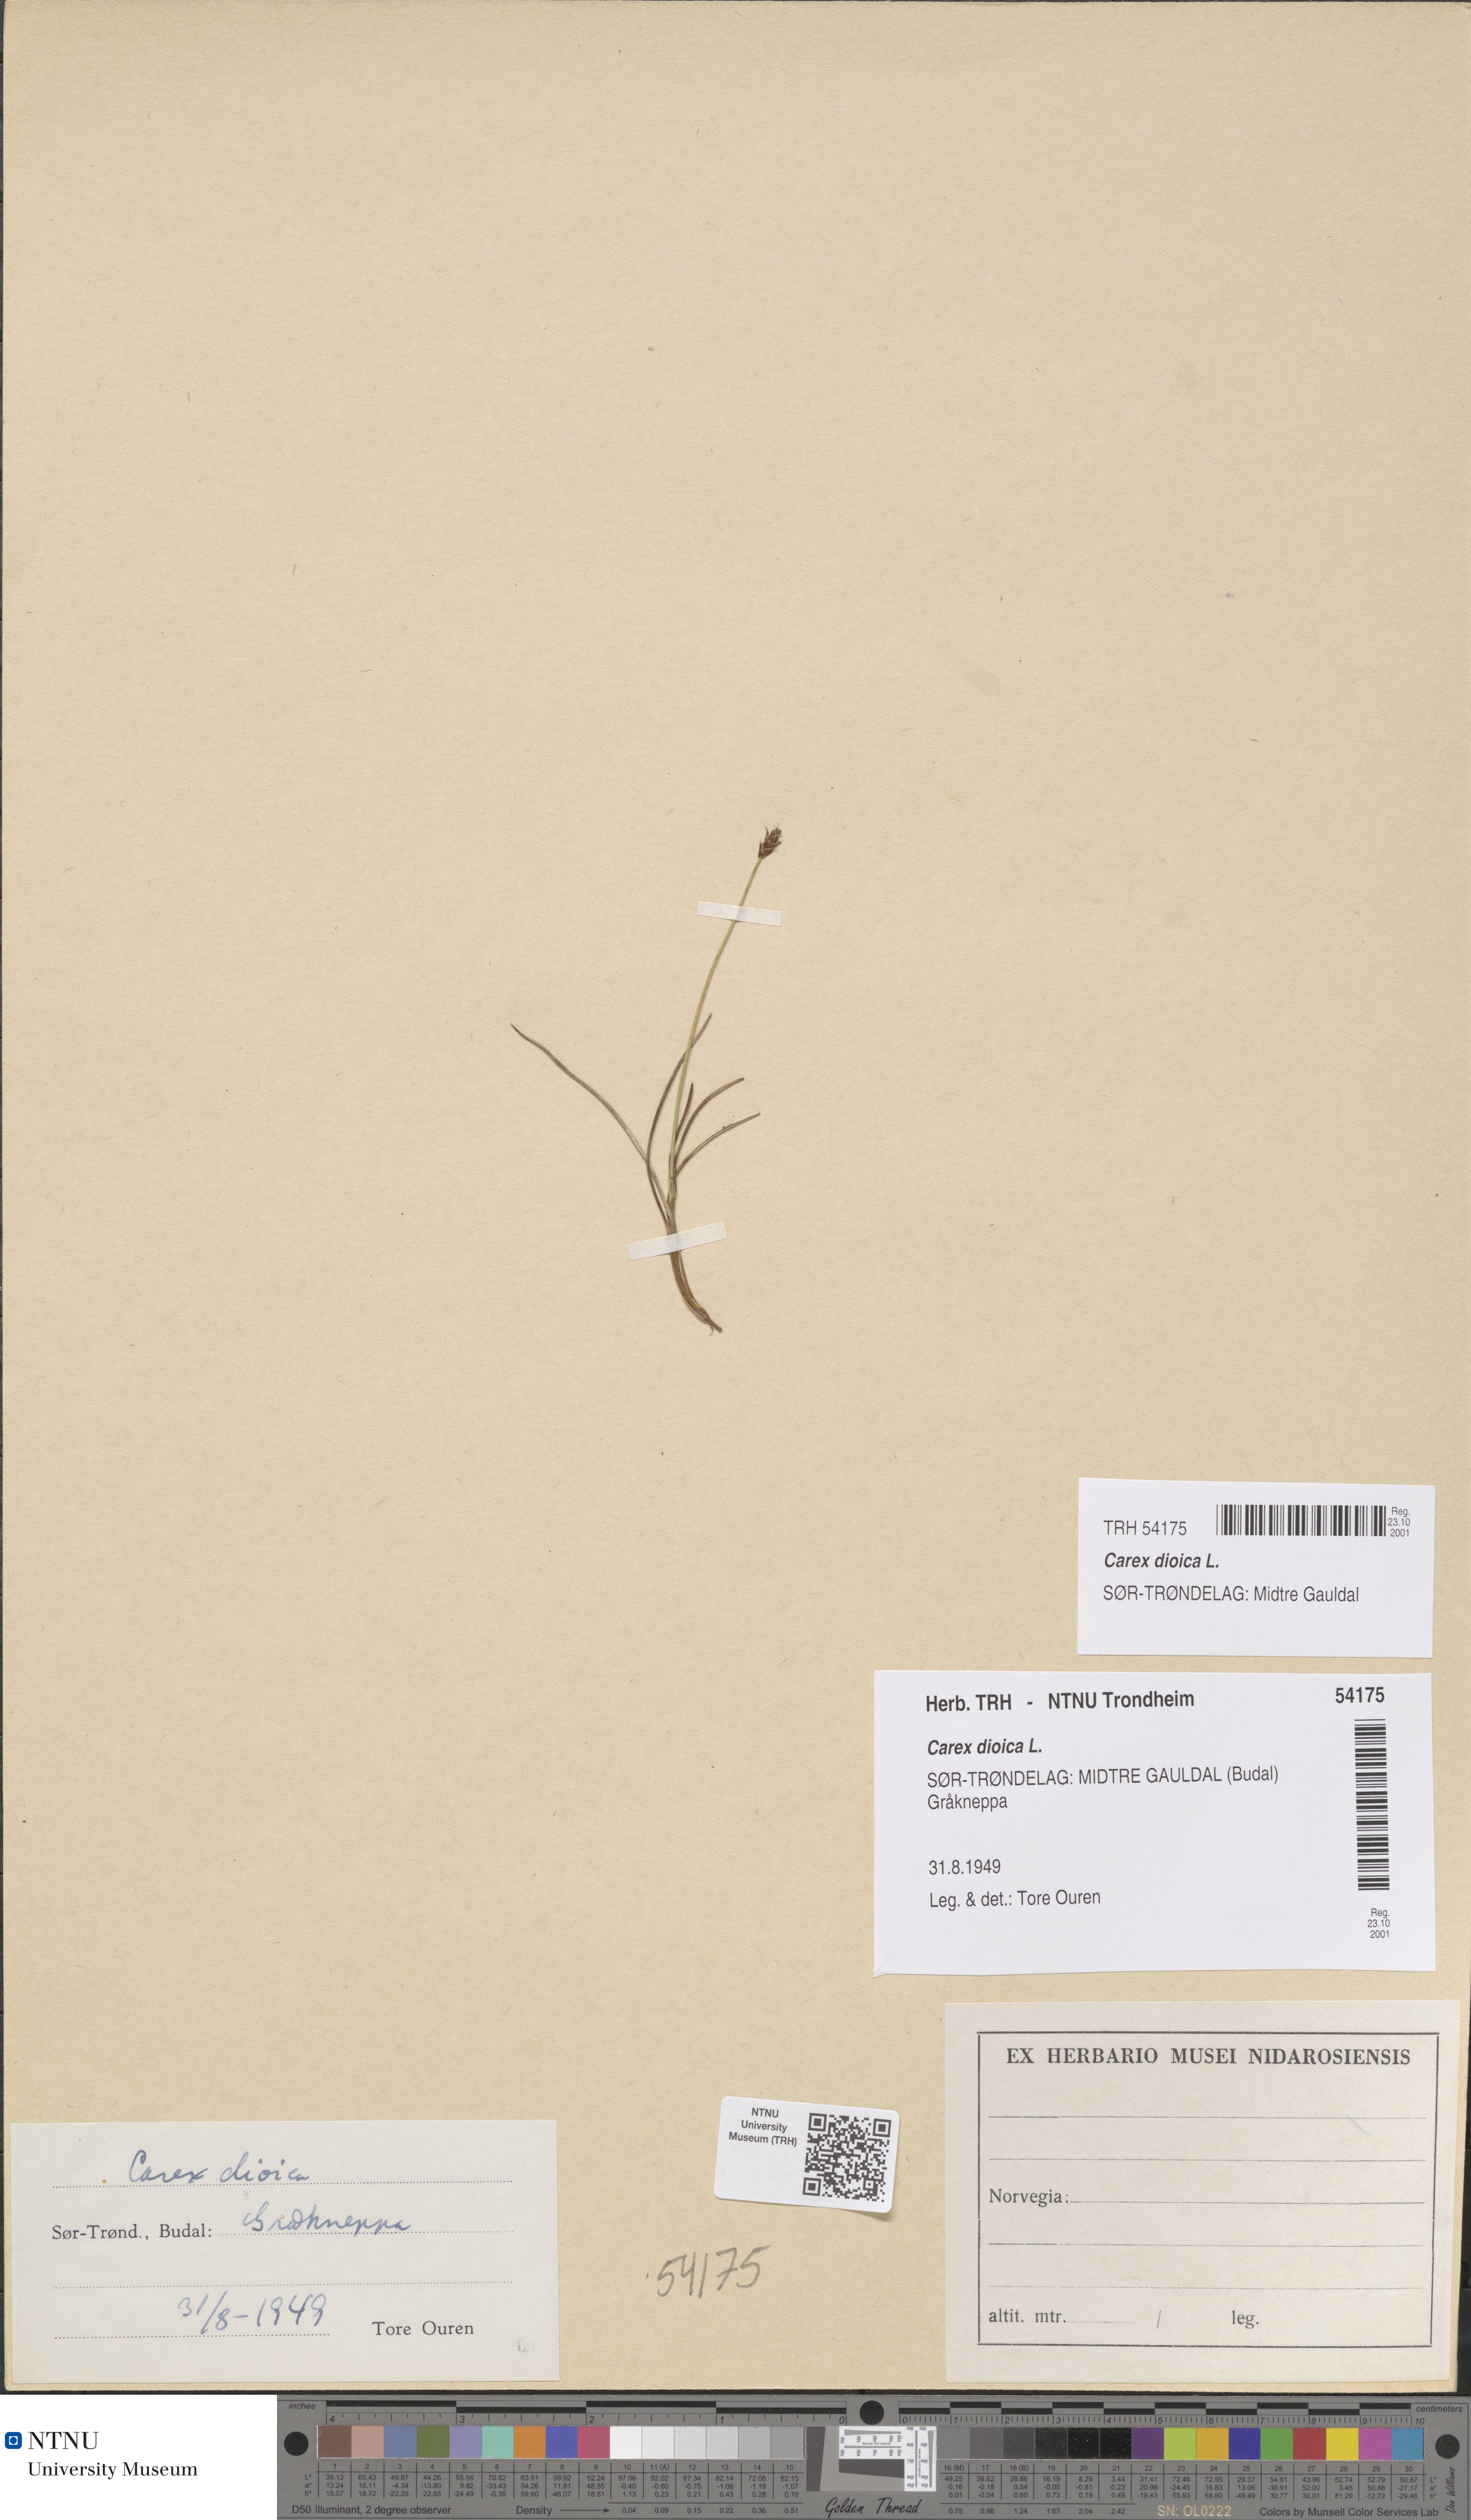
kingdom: Plantae
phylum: Tracheophyta
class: Liliopsida
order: Poales
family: Cyperaceae
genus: Carex
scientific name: Carex dioica
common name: Dioecious sedge
